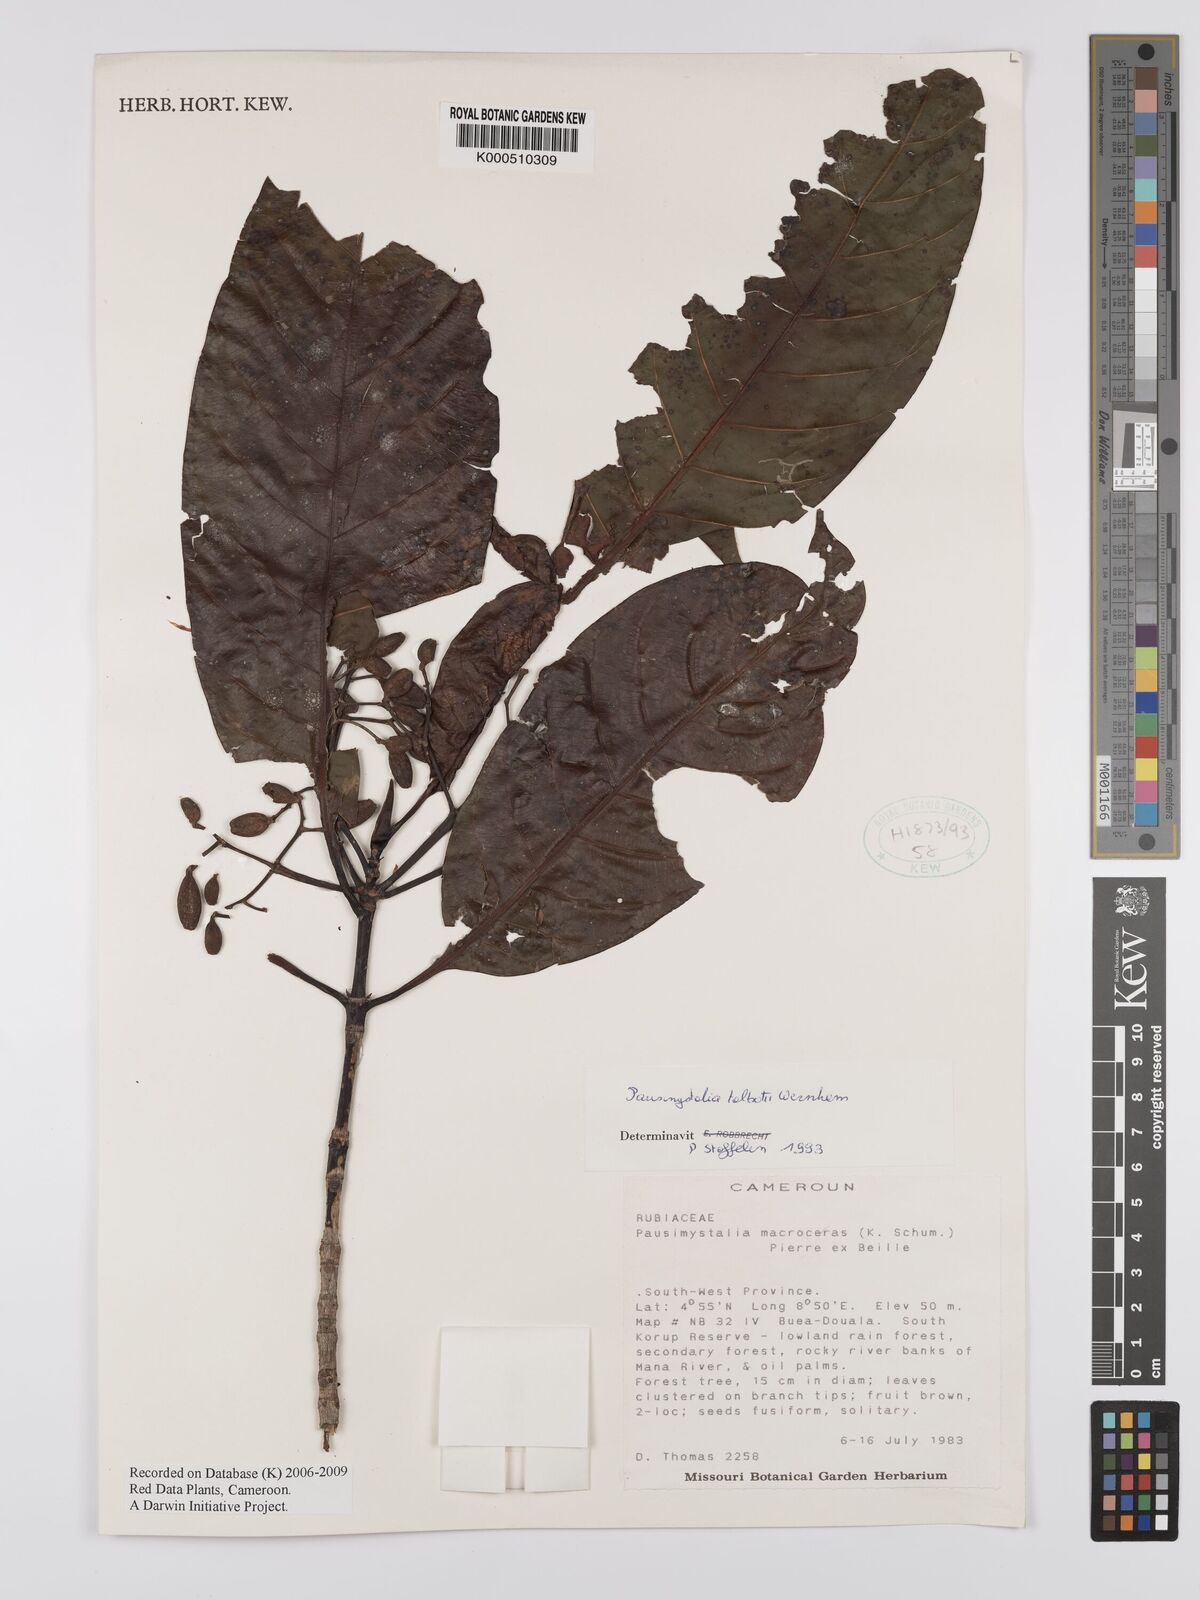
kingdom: Plantae
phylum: Tracheophyta
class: Magnoliopsida
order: Gentianales
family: Rubiaceae
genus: Corynanthe
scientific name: Corynanthe talbotii
